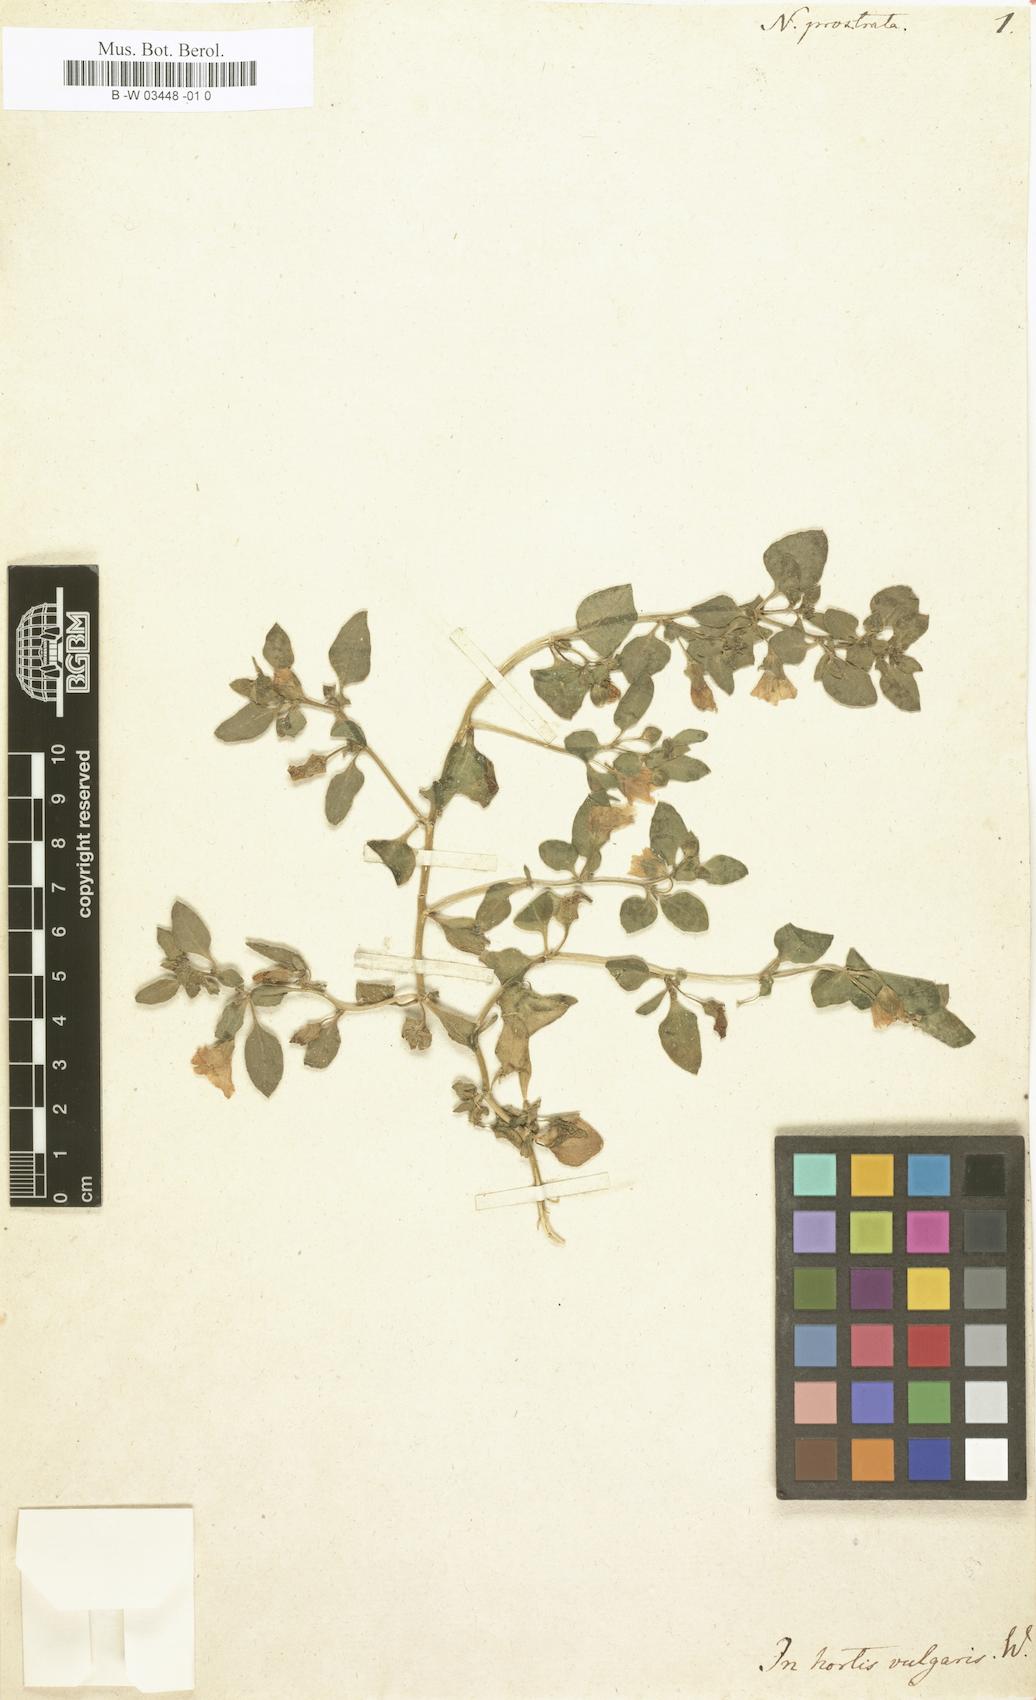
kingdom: Plantae
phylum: Tracheophyta
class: Magnoliopsida
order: Solanales
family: Solanaceae
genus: Nolana
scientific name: Nolana humifusa
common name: Trailing chilean-bellflower
